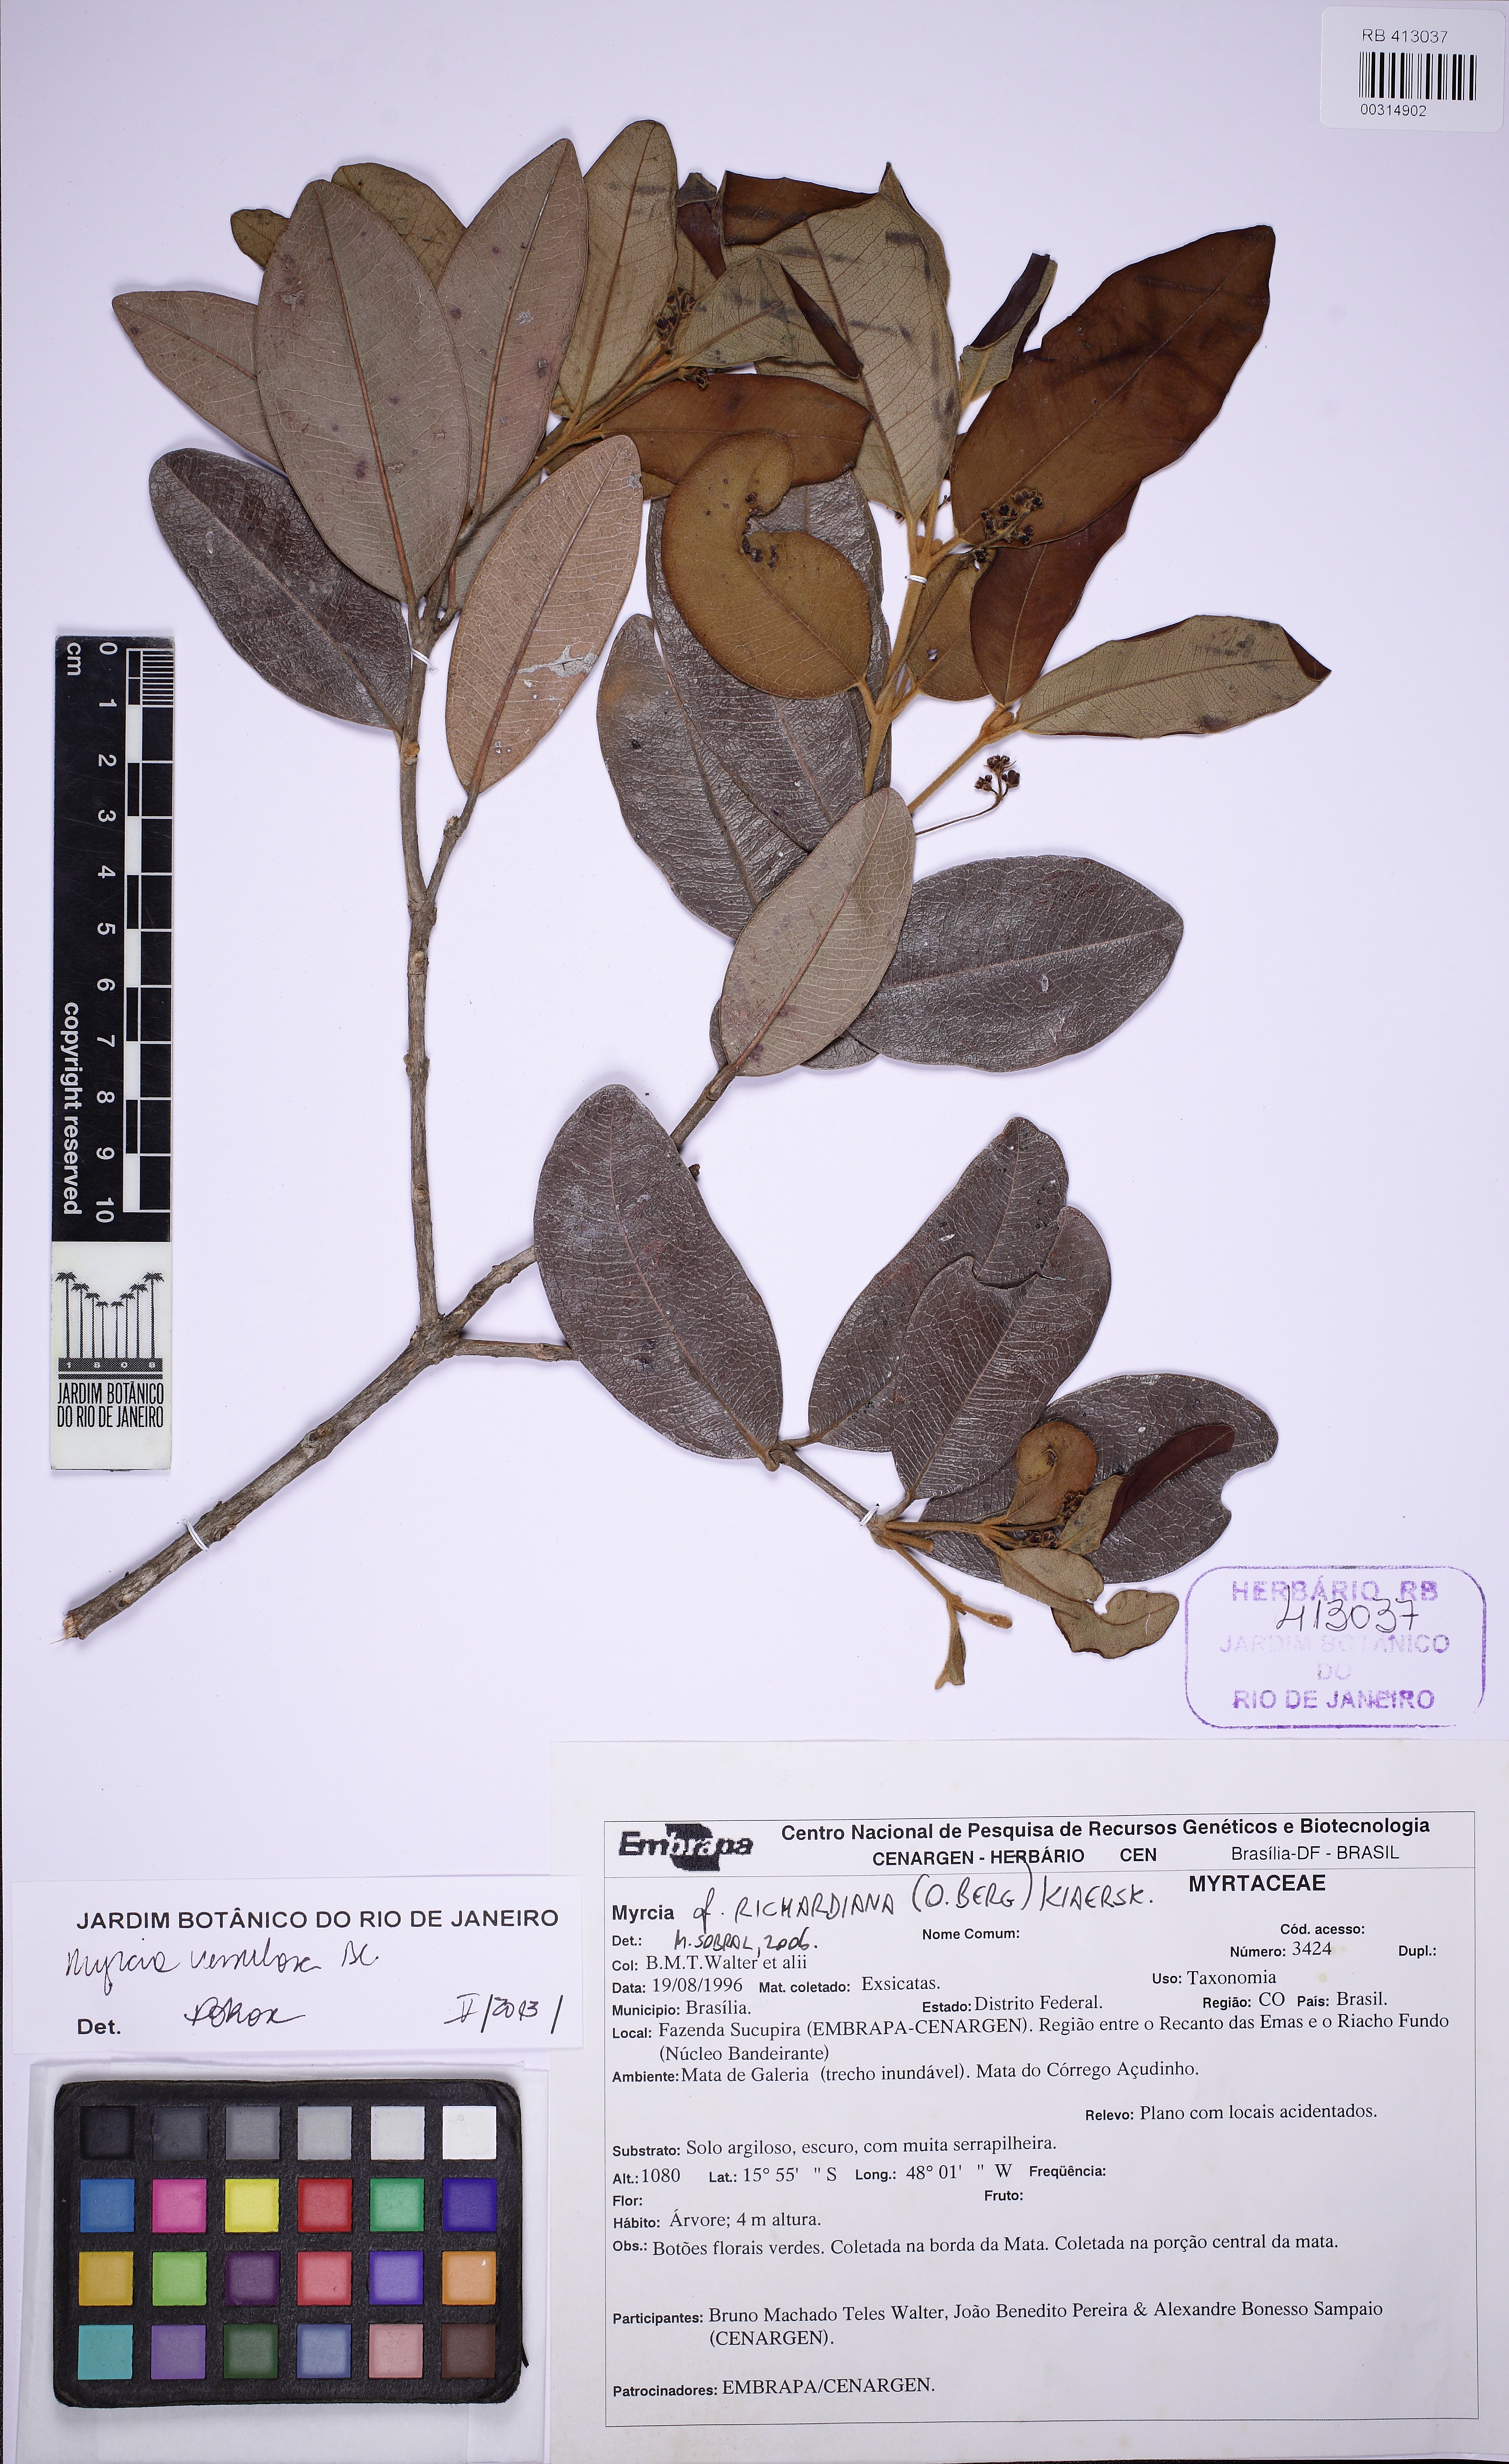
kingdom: Plantae
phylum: Tracheophyta
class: Magnoliopsida
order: Myrtales
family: Myrtaceae
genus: Myrcia
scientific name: Myrcia venulosa
